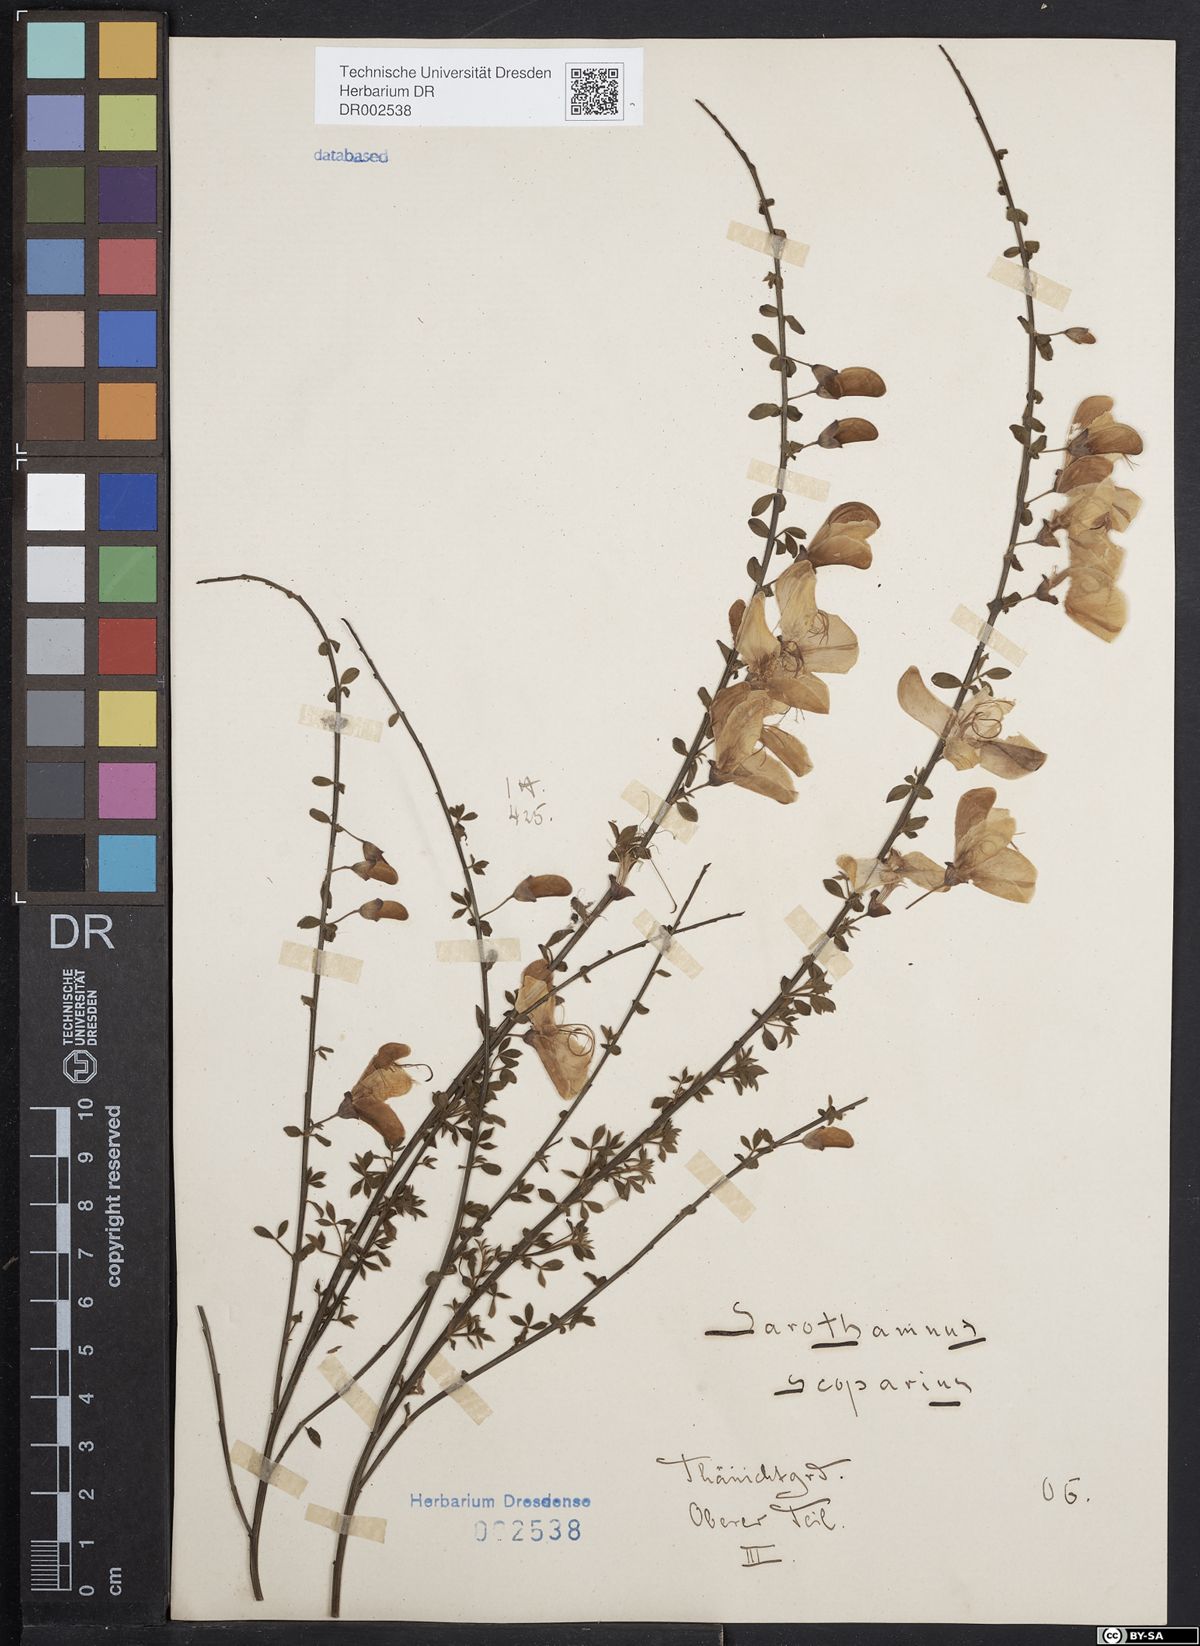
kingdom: Plantae
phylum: Tracheophyta
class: Magnoliopsida
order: Fabales
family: Fabaceae
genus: Cytisus
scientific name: Cytisus scoparius
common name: Scotch broom
